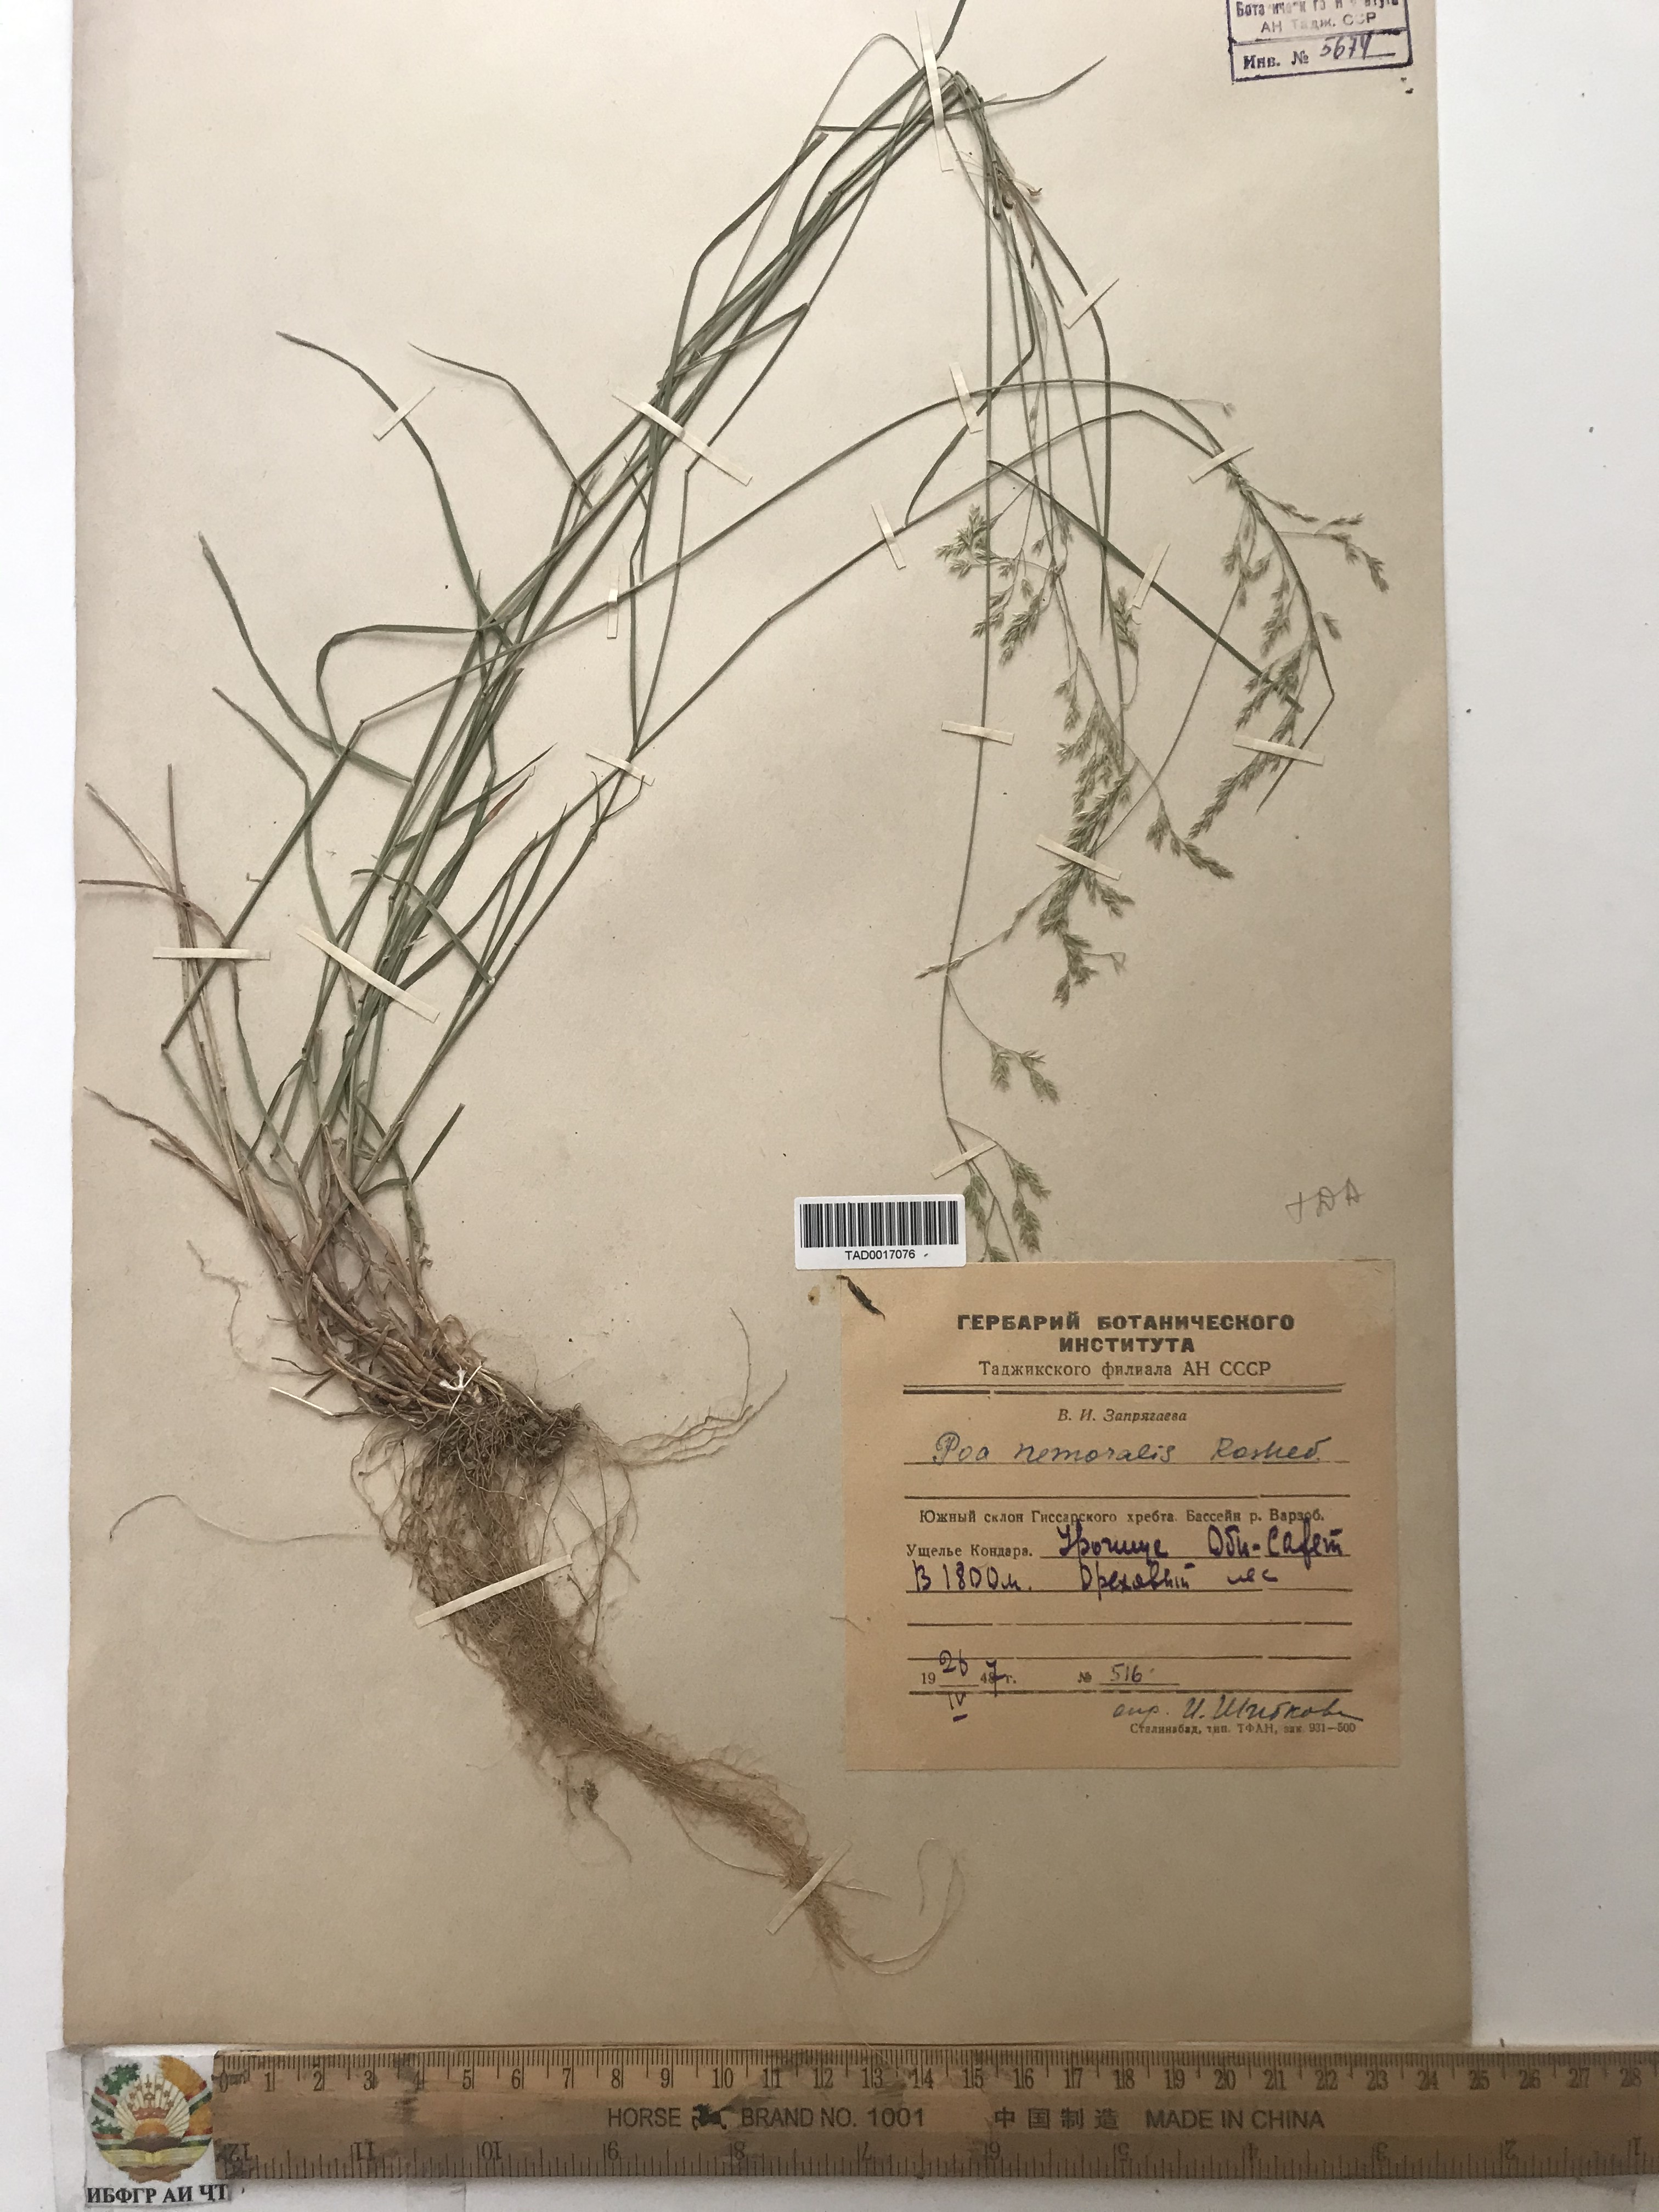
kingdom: Plantae
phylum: Tracheophyta
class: Liliopsida
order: Poales
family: Poaceae
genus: Poa
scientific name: Poa nemoraliformis
